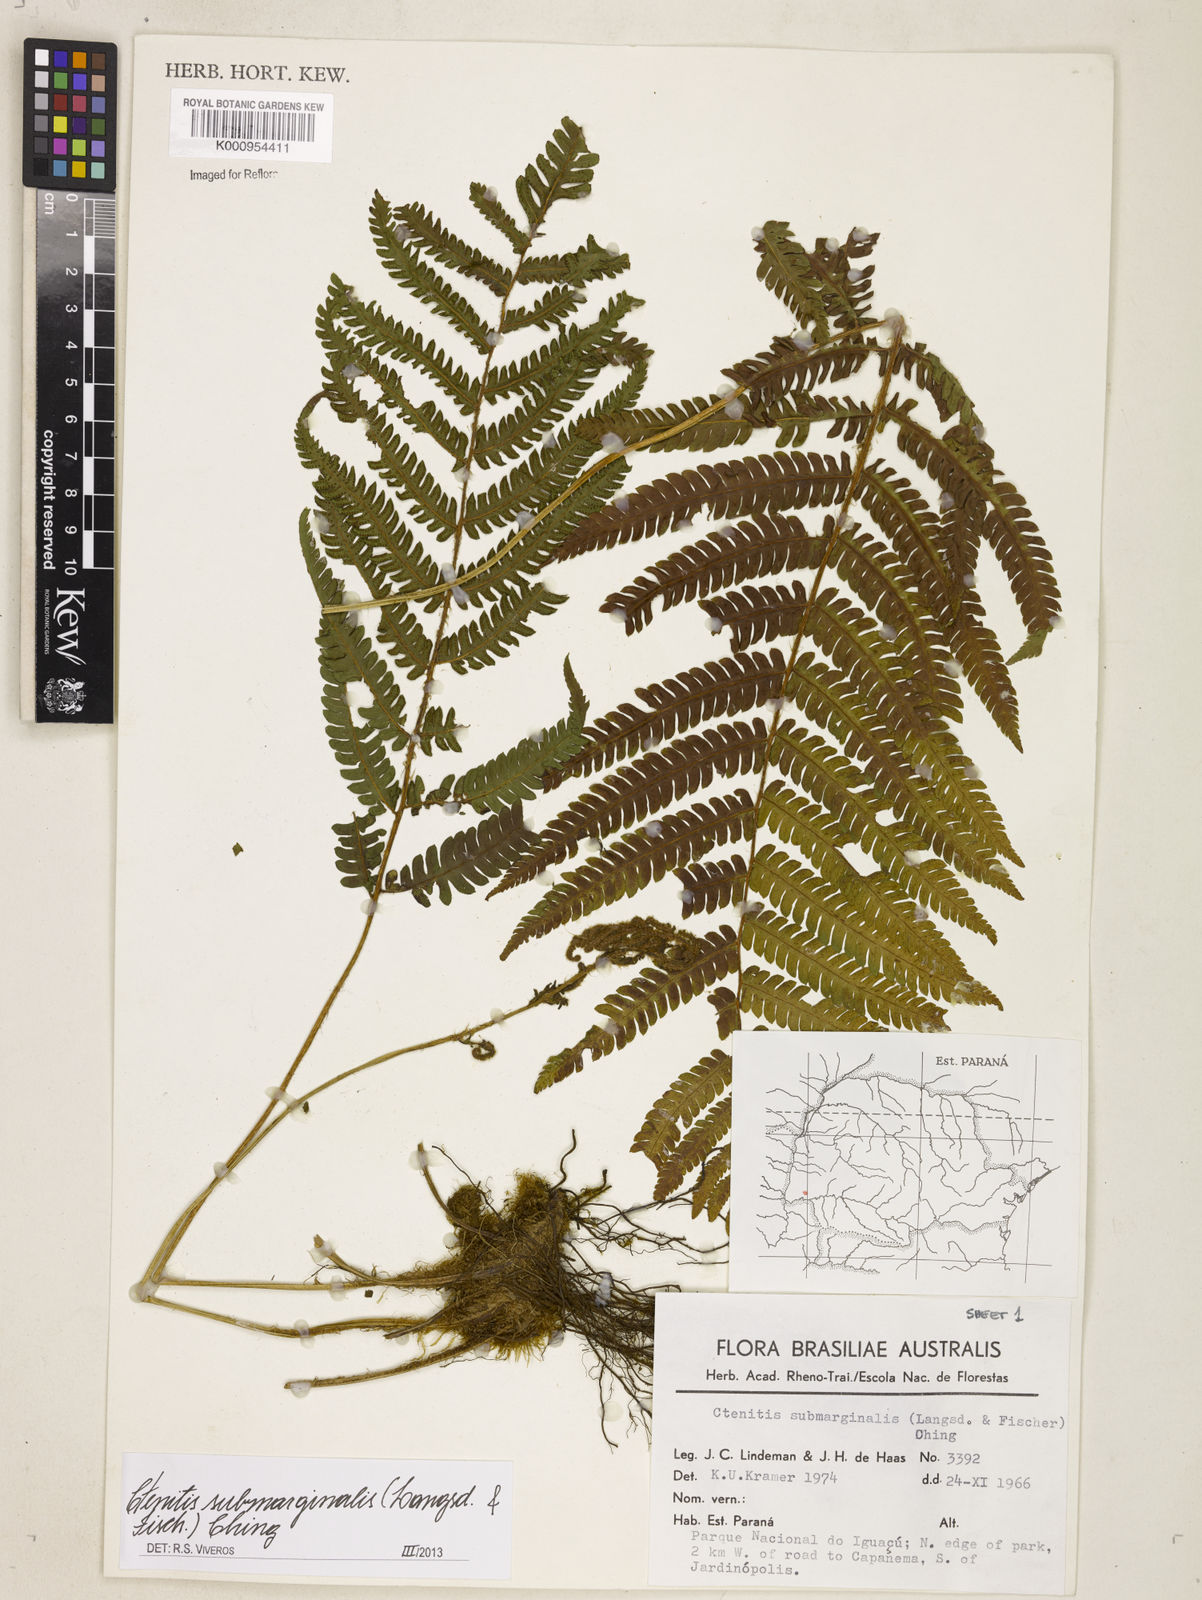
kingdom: Plantae
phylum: Tracheophyta
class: Polypodiopsida
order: Polypodiales
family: Dryopteridaceae
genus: Ctenitis
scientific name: Ctenitis submarginalis
